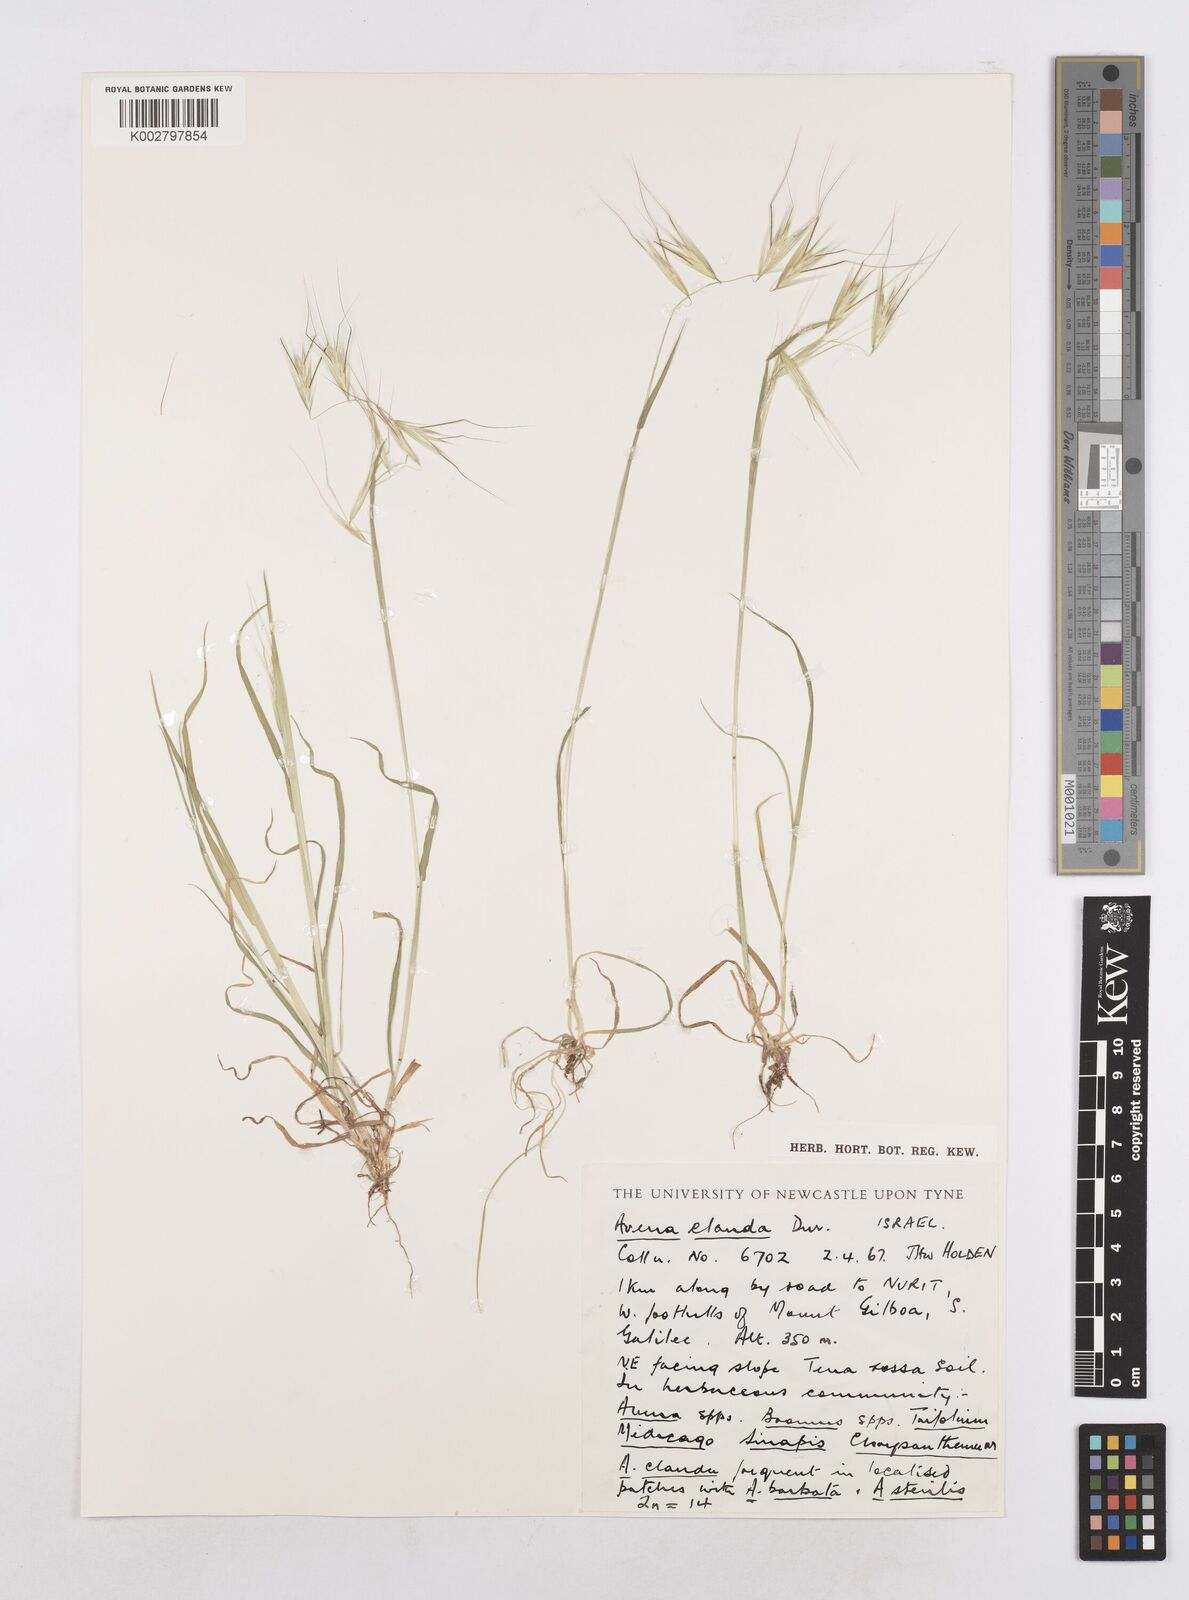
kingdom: Plantae
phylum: Tracheophyta
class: Liliopsida
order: Poales
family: Poaceae
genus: Avena
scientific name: Avena clauda
